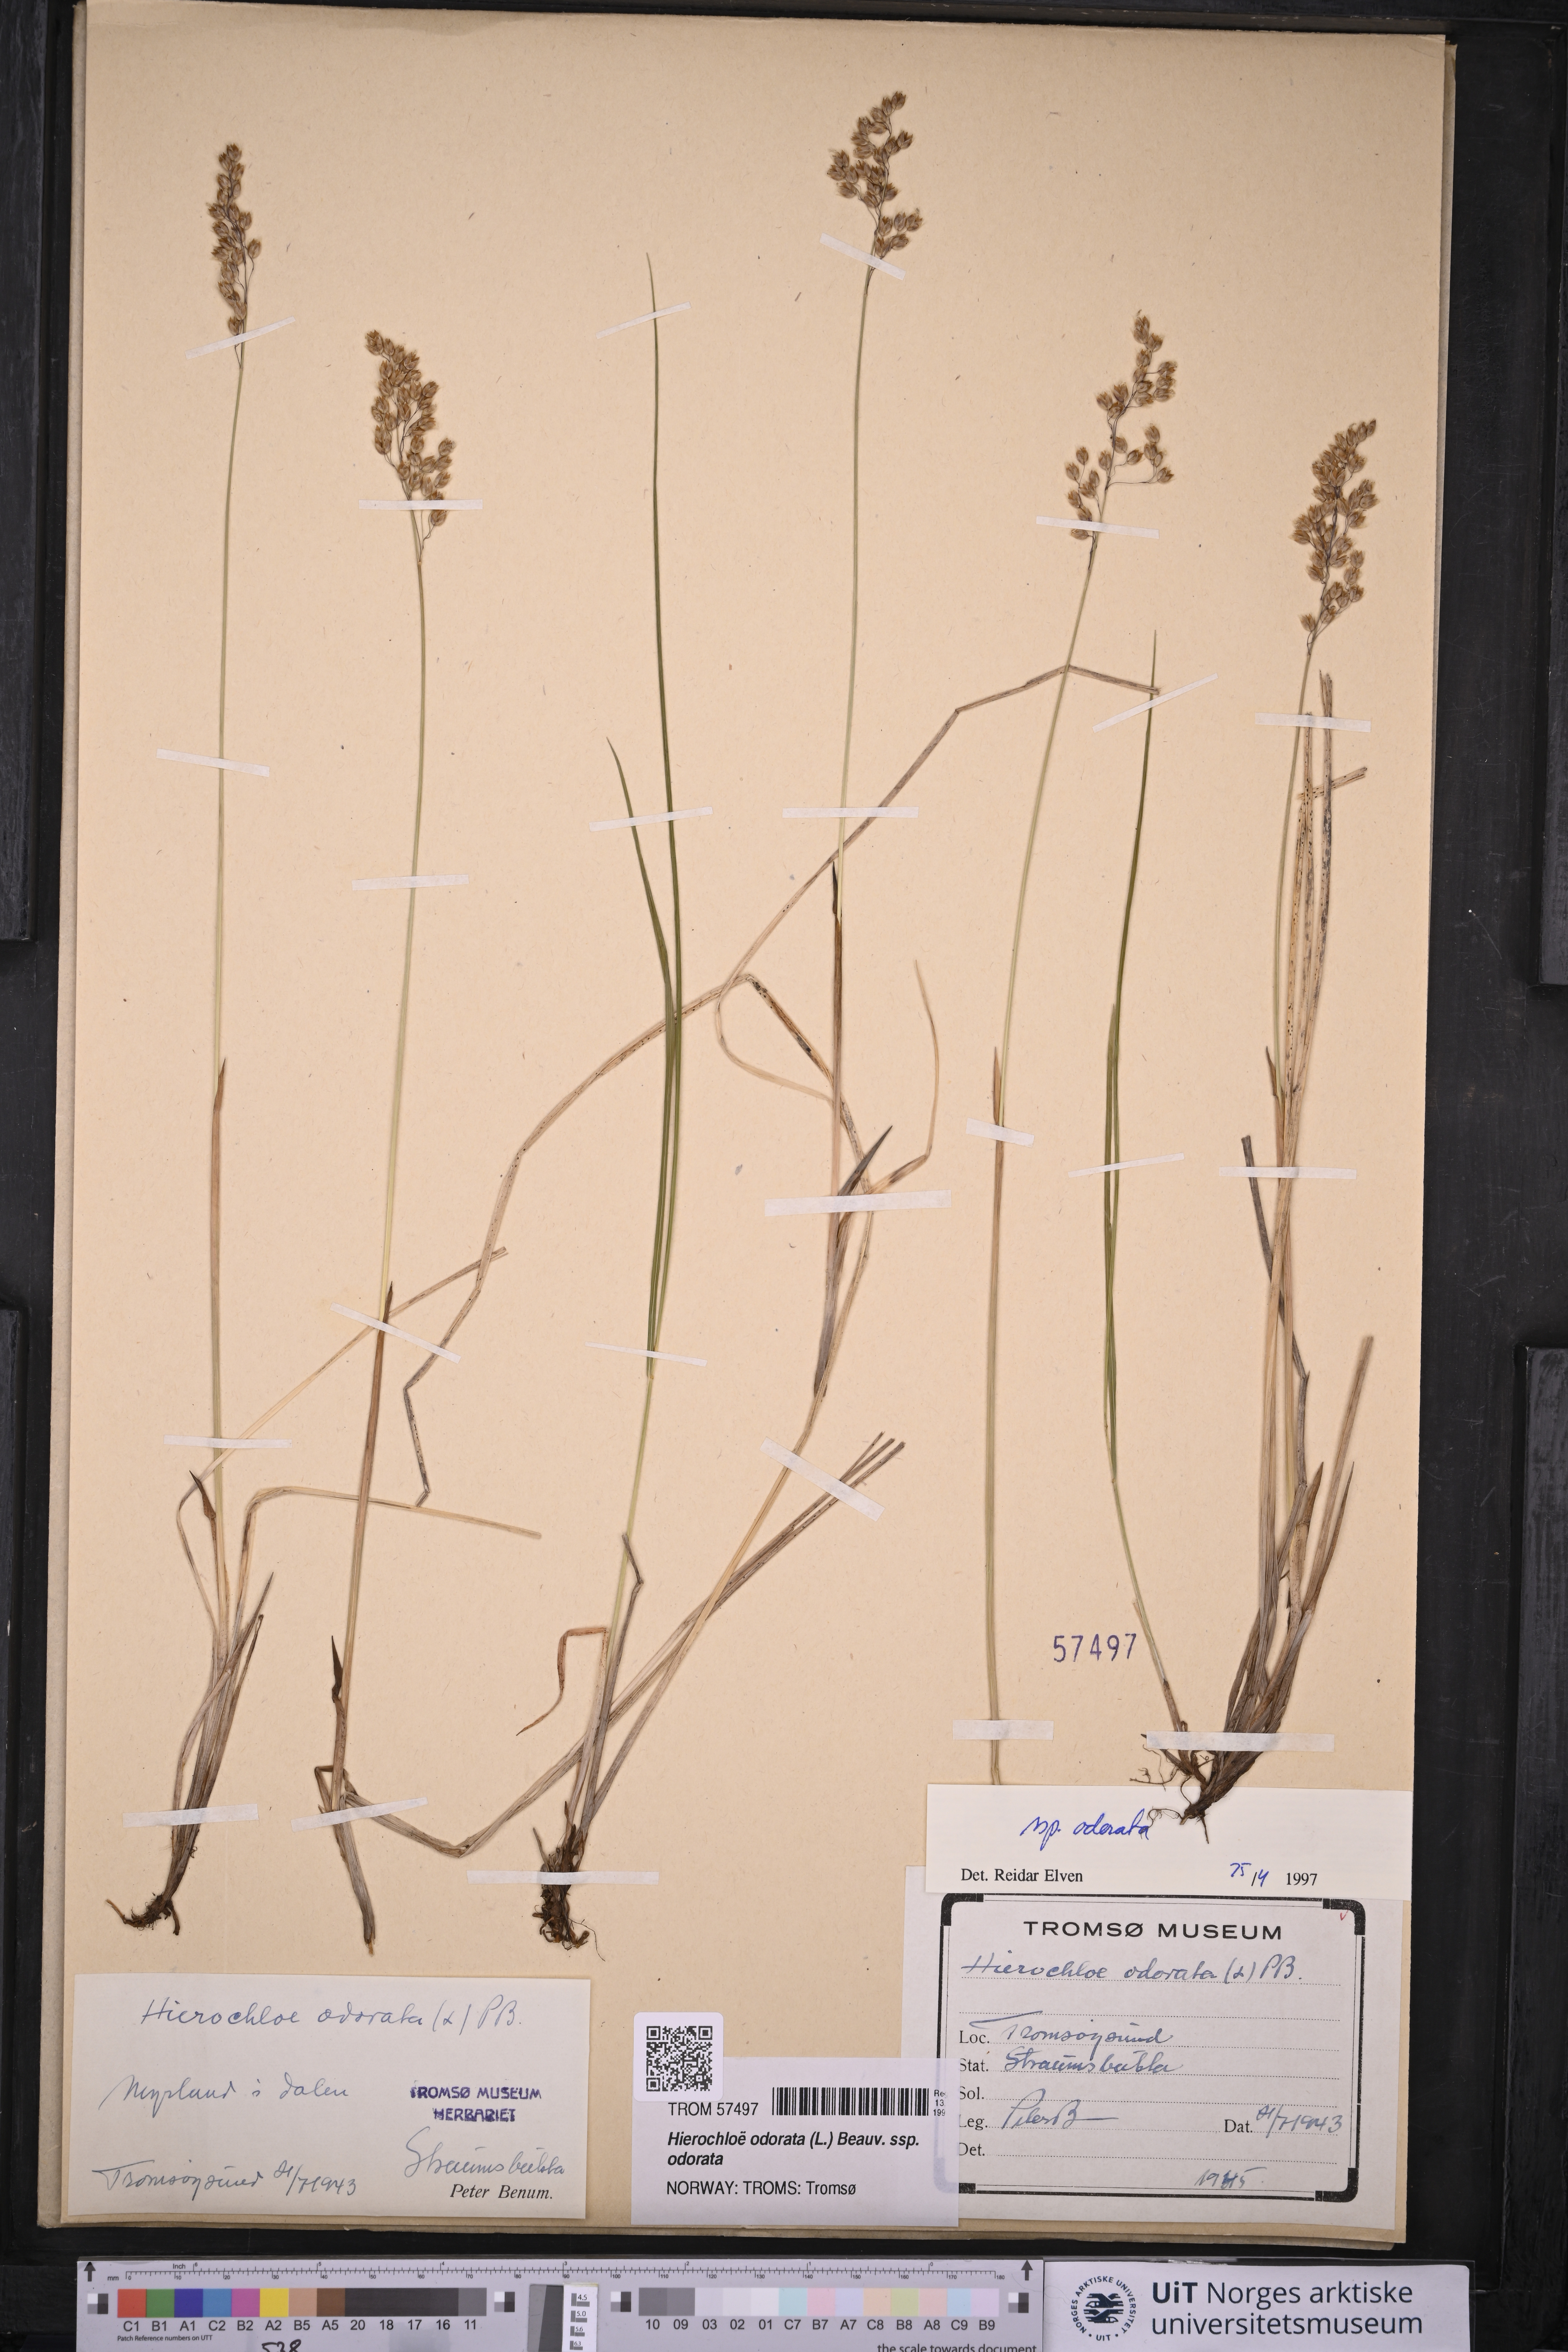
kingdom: Plantae
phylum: Tracheophyta
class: Liliopsida
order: Poales
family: Poaceae
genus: Anthoxanthum
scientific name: Anthoxanthum nitens
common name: Holy grass
